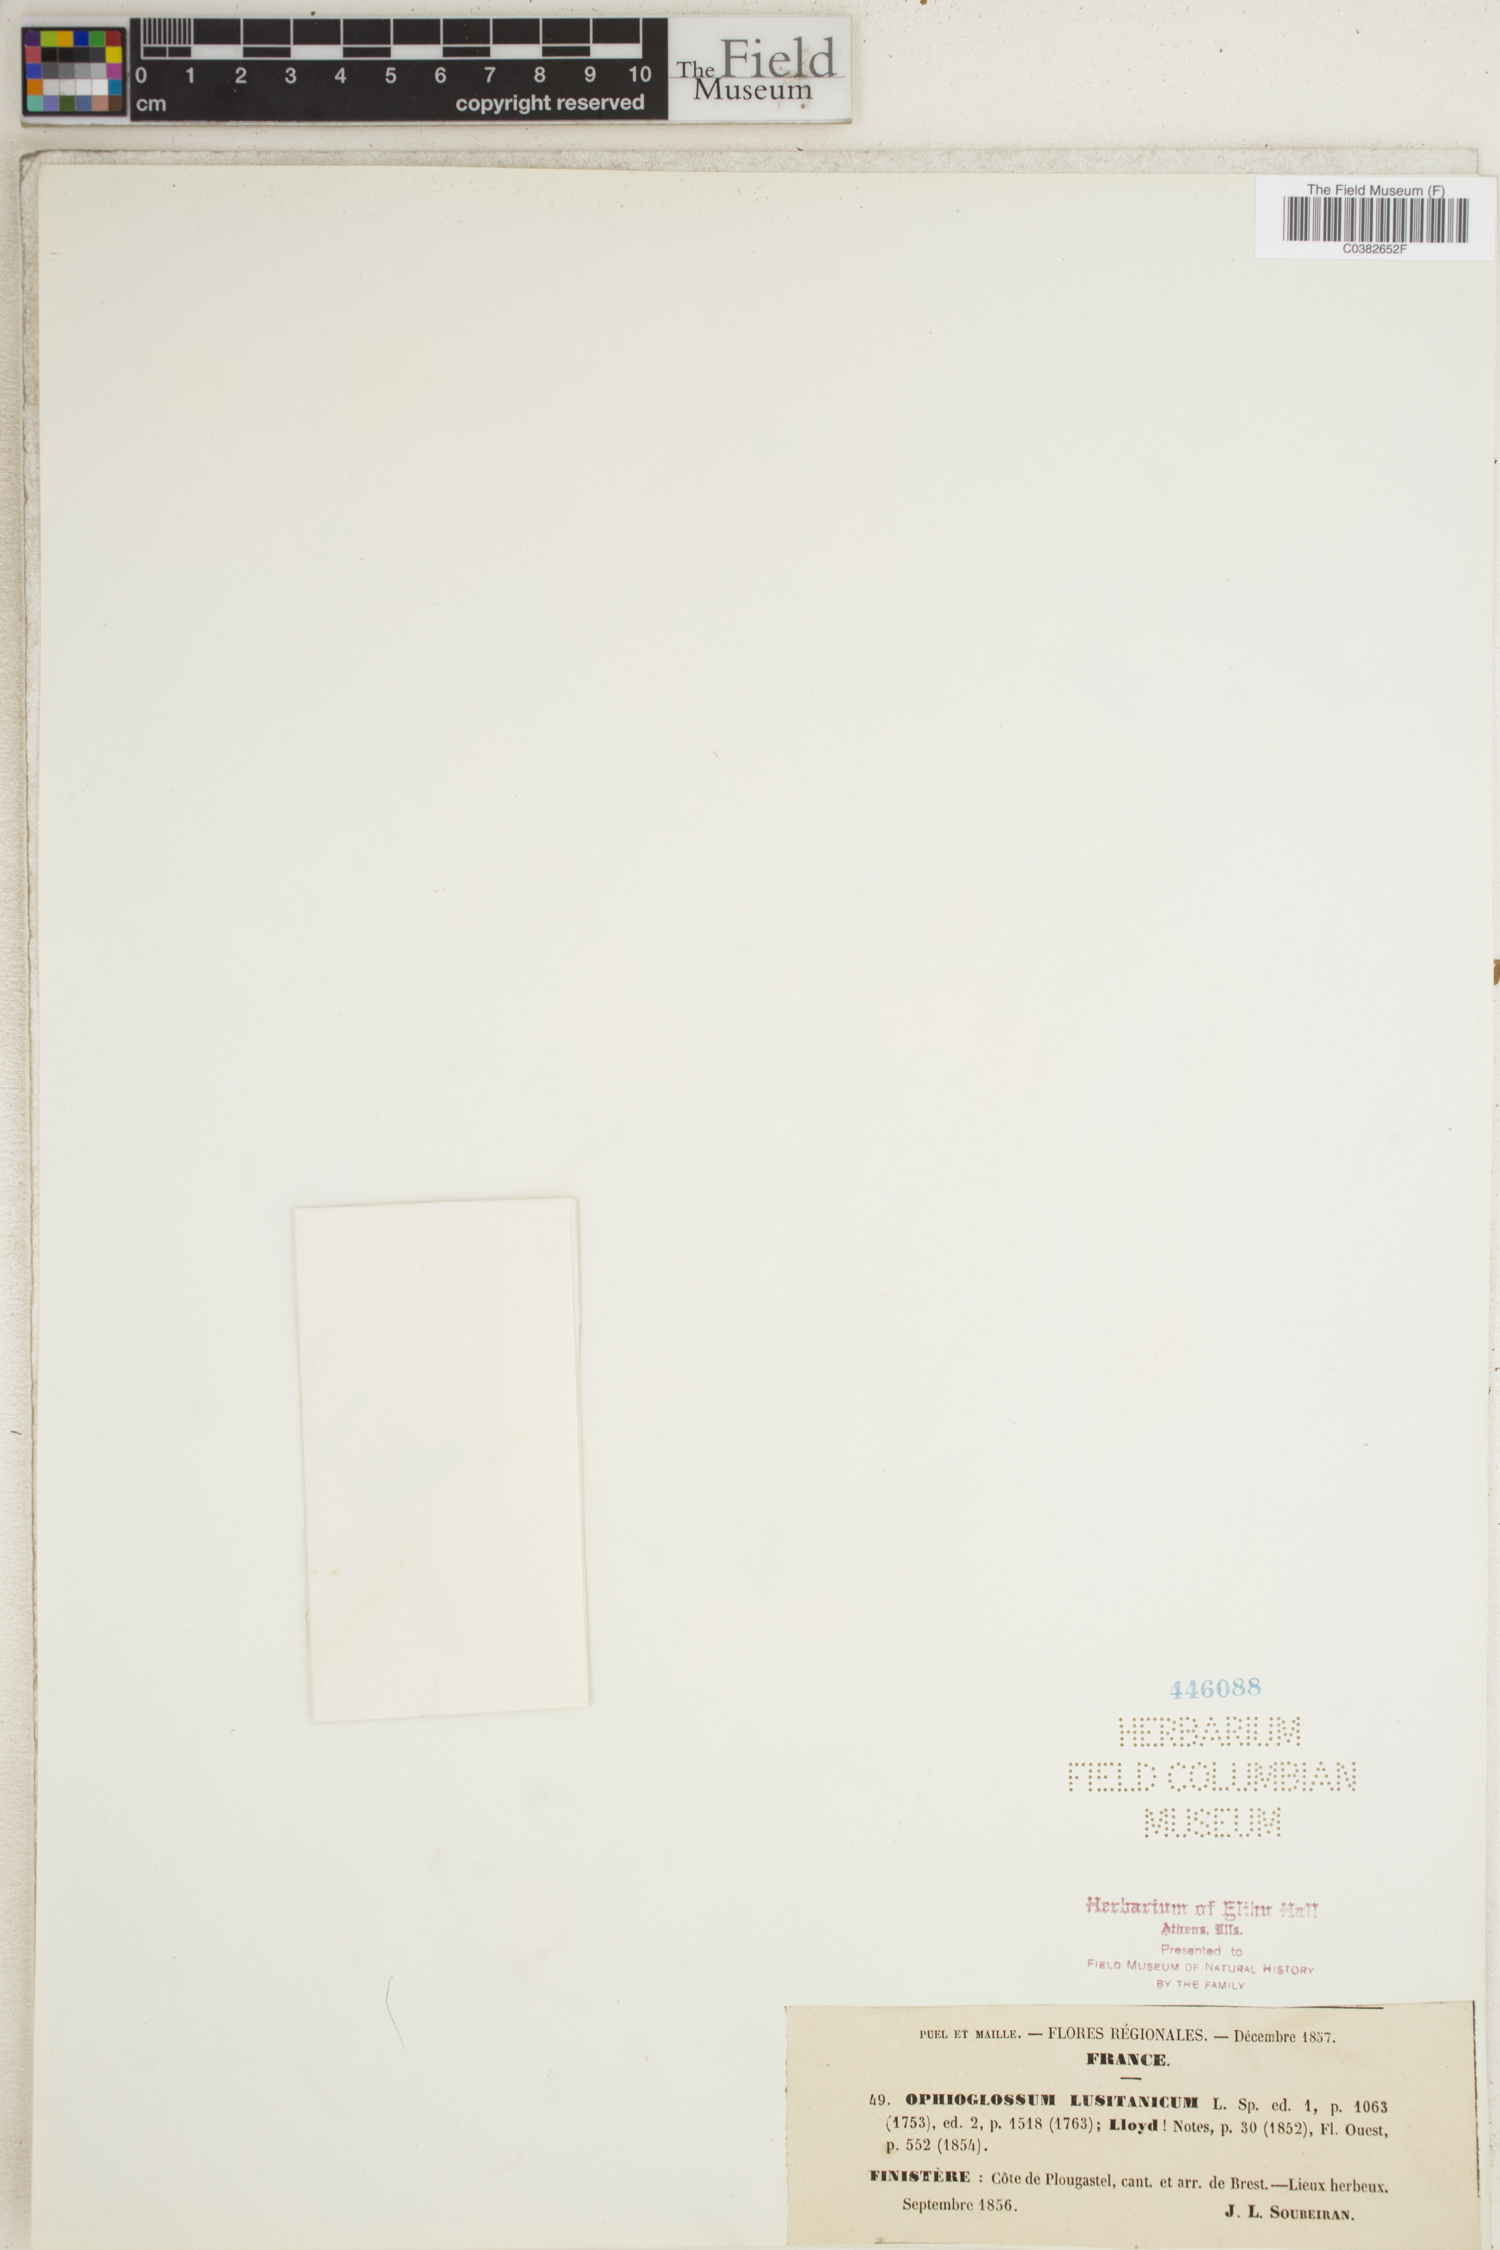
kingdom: Plantae
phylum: Tracheophyta
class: Polypodiopsida
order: Ophioglossales
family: Ophioglossaceae
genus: Ophioglossum
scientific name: Ophioglossum lusitanicum
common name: Least adder's-tongue
